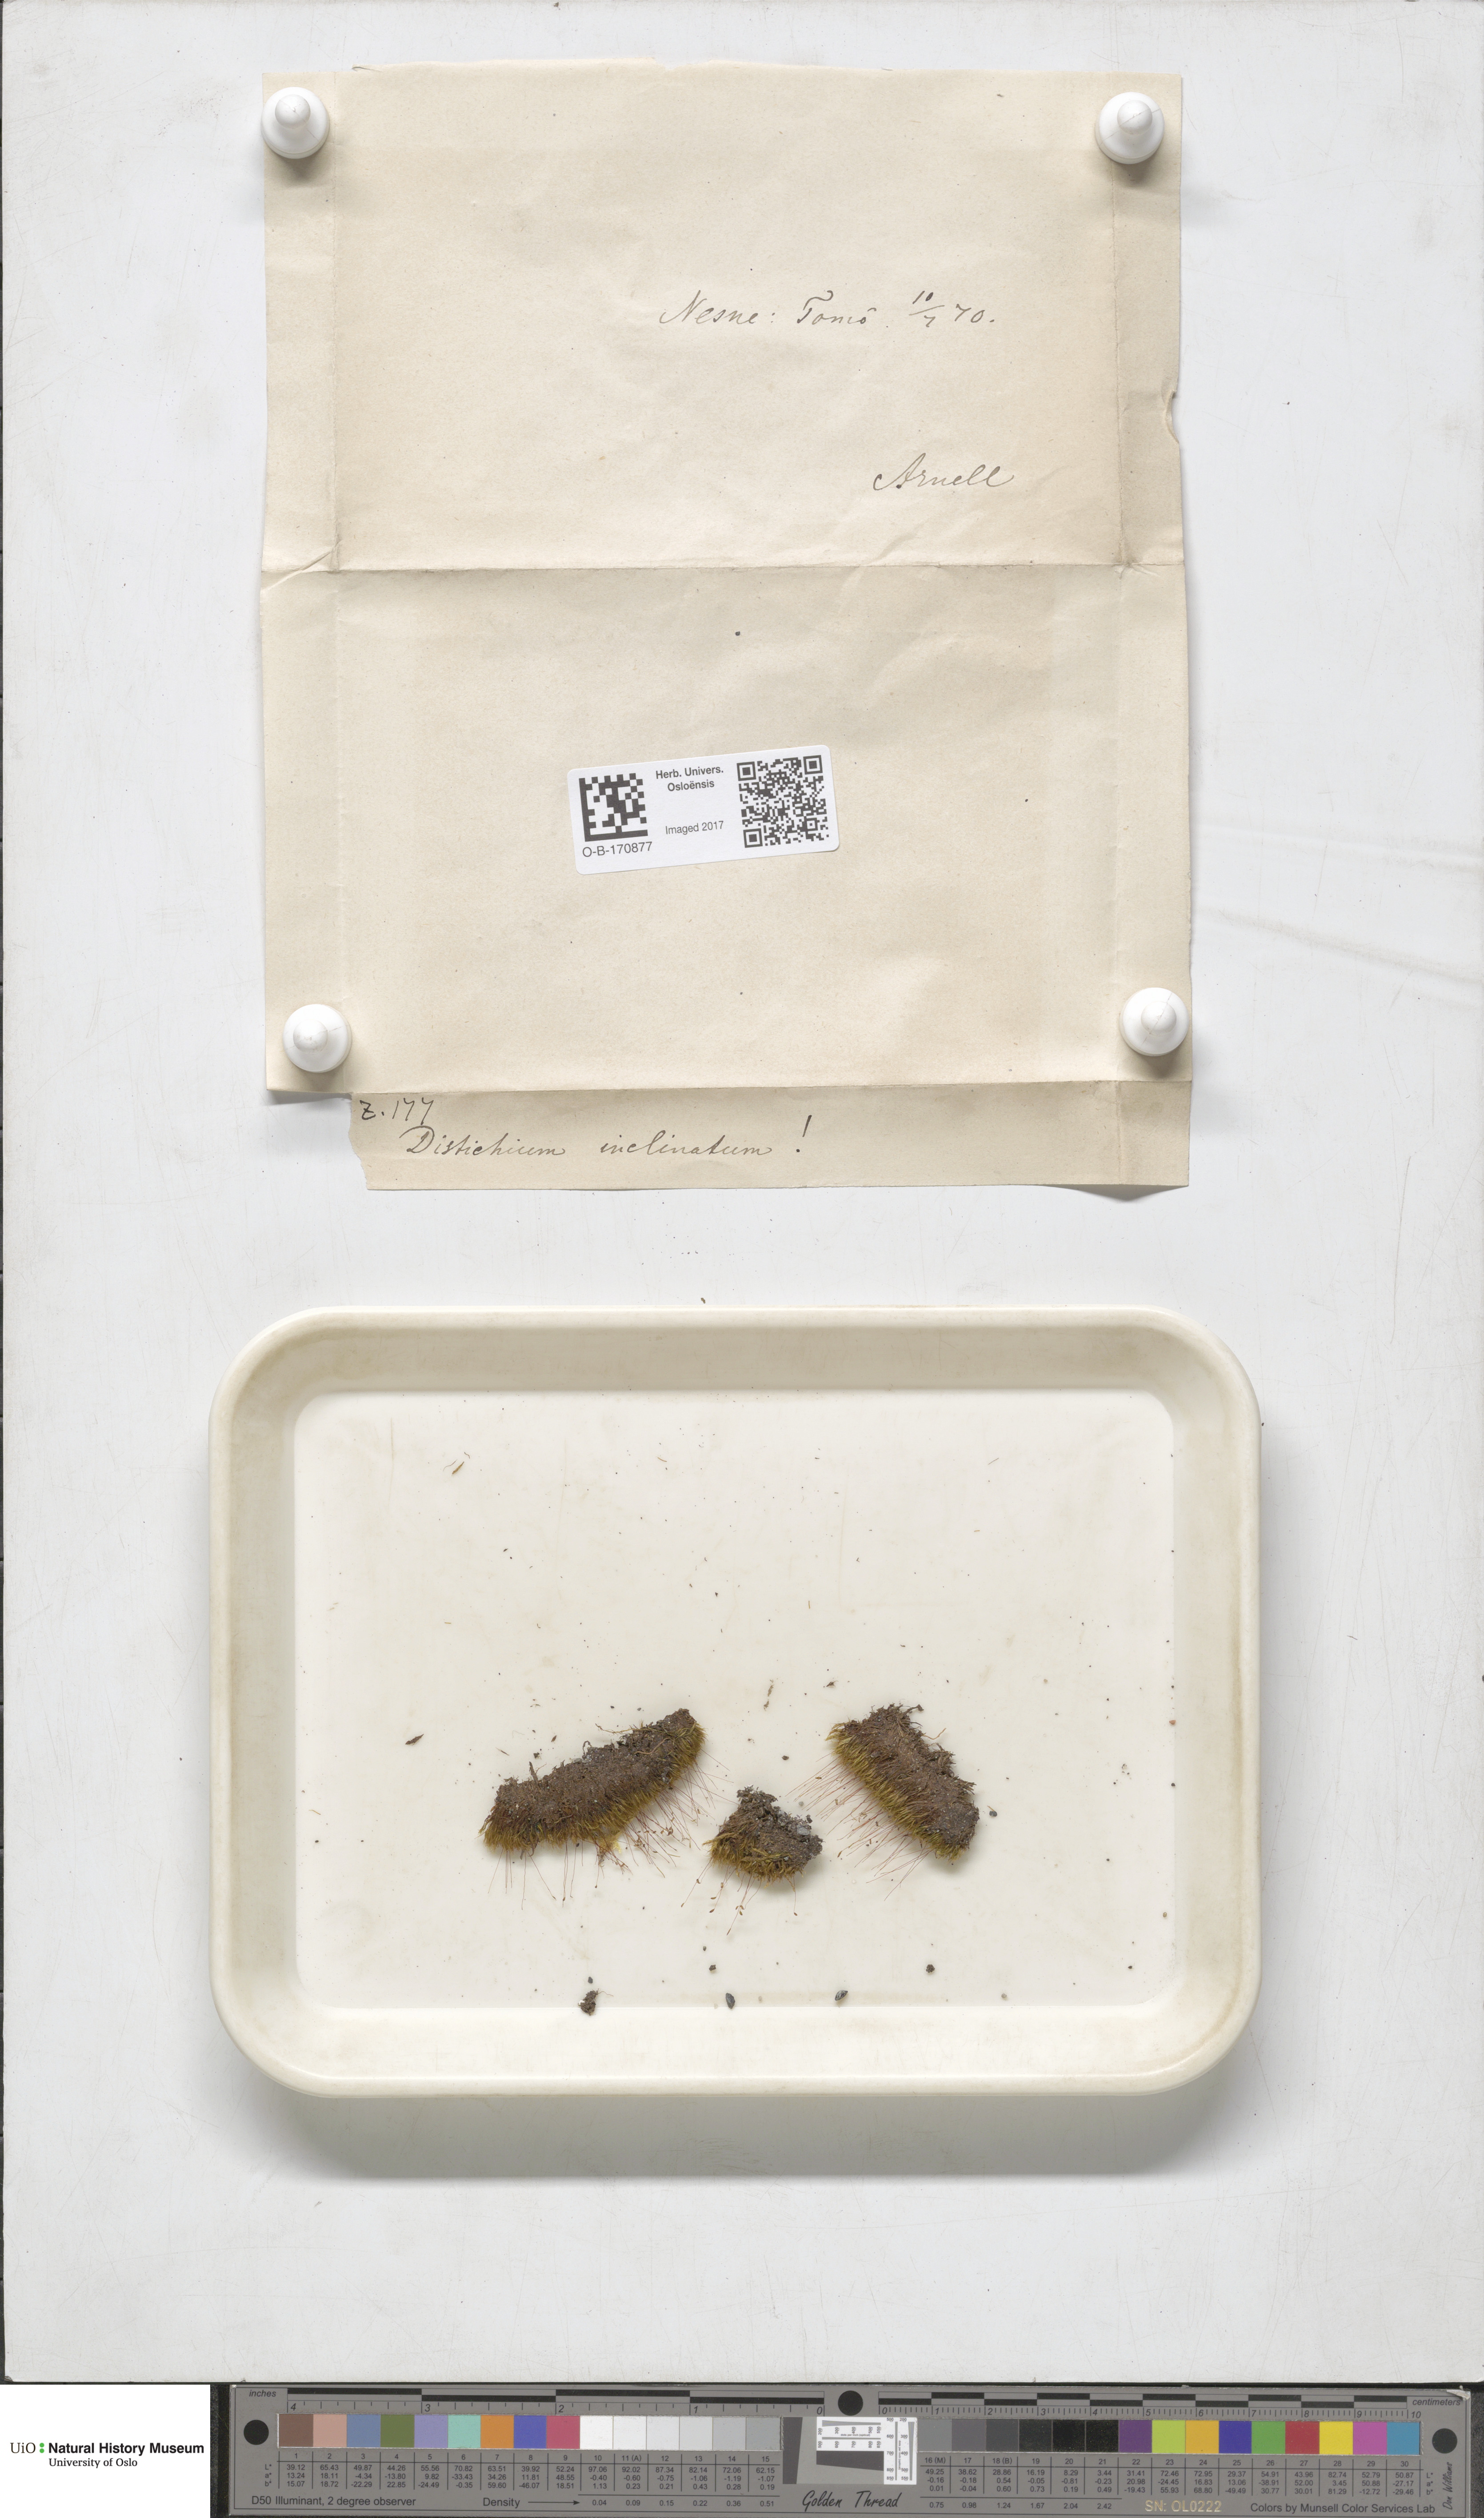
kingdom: Plantae
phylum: Bryophyta
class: Bryopsida
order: Scouleriales
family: Distichiaceae
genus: Distichium
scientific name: Distichium inclinatum
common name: Inclined iris moss
